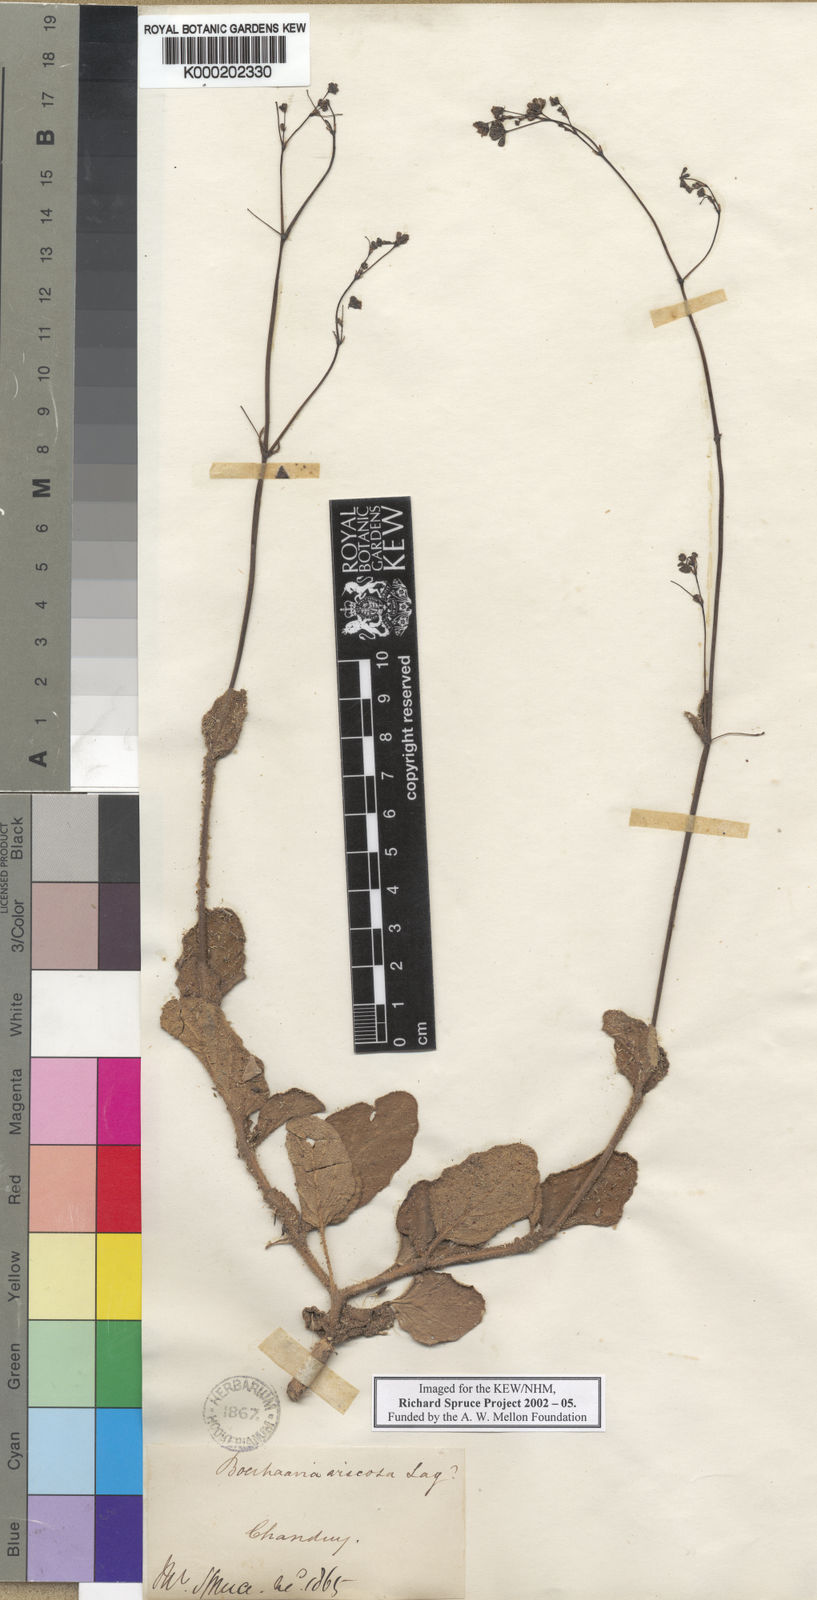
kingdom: Plantae
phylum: Tracheophyta
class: Magnoliopsida
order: Caryophyllales
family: Nyctaginaceae
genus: Boerhavia
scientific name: Boerhavia diffusa
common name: Red spiderling
